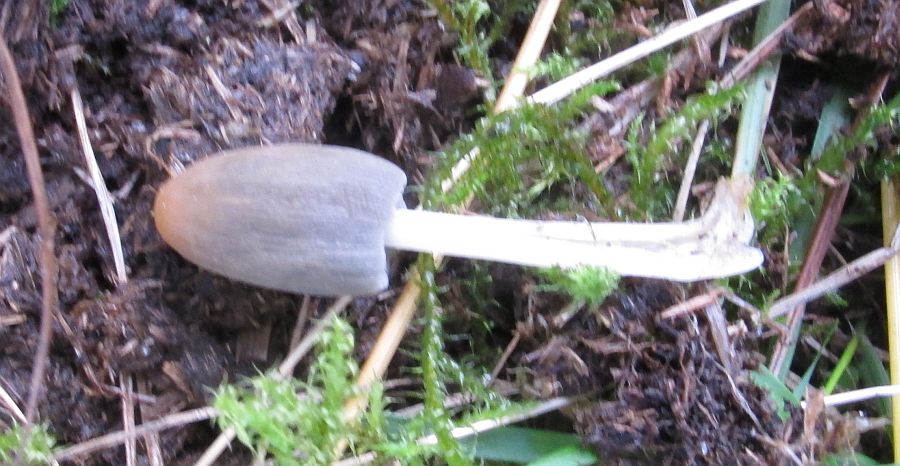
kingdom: Fungi
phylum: Basidiomycota
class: Agaricomycetes
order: Agaricales
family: Psathyrellaceae
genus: Parasola
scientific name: Parasola schroeteri
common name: bredsporet hjulhat
